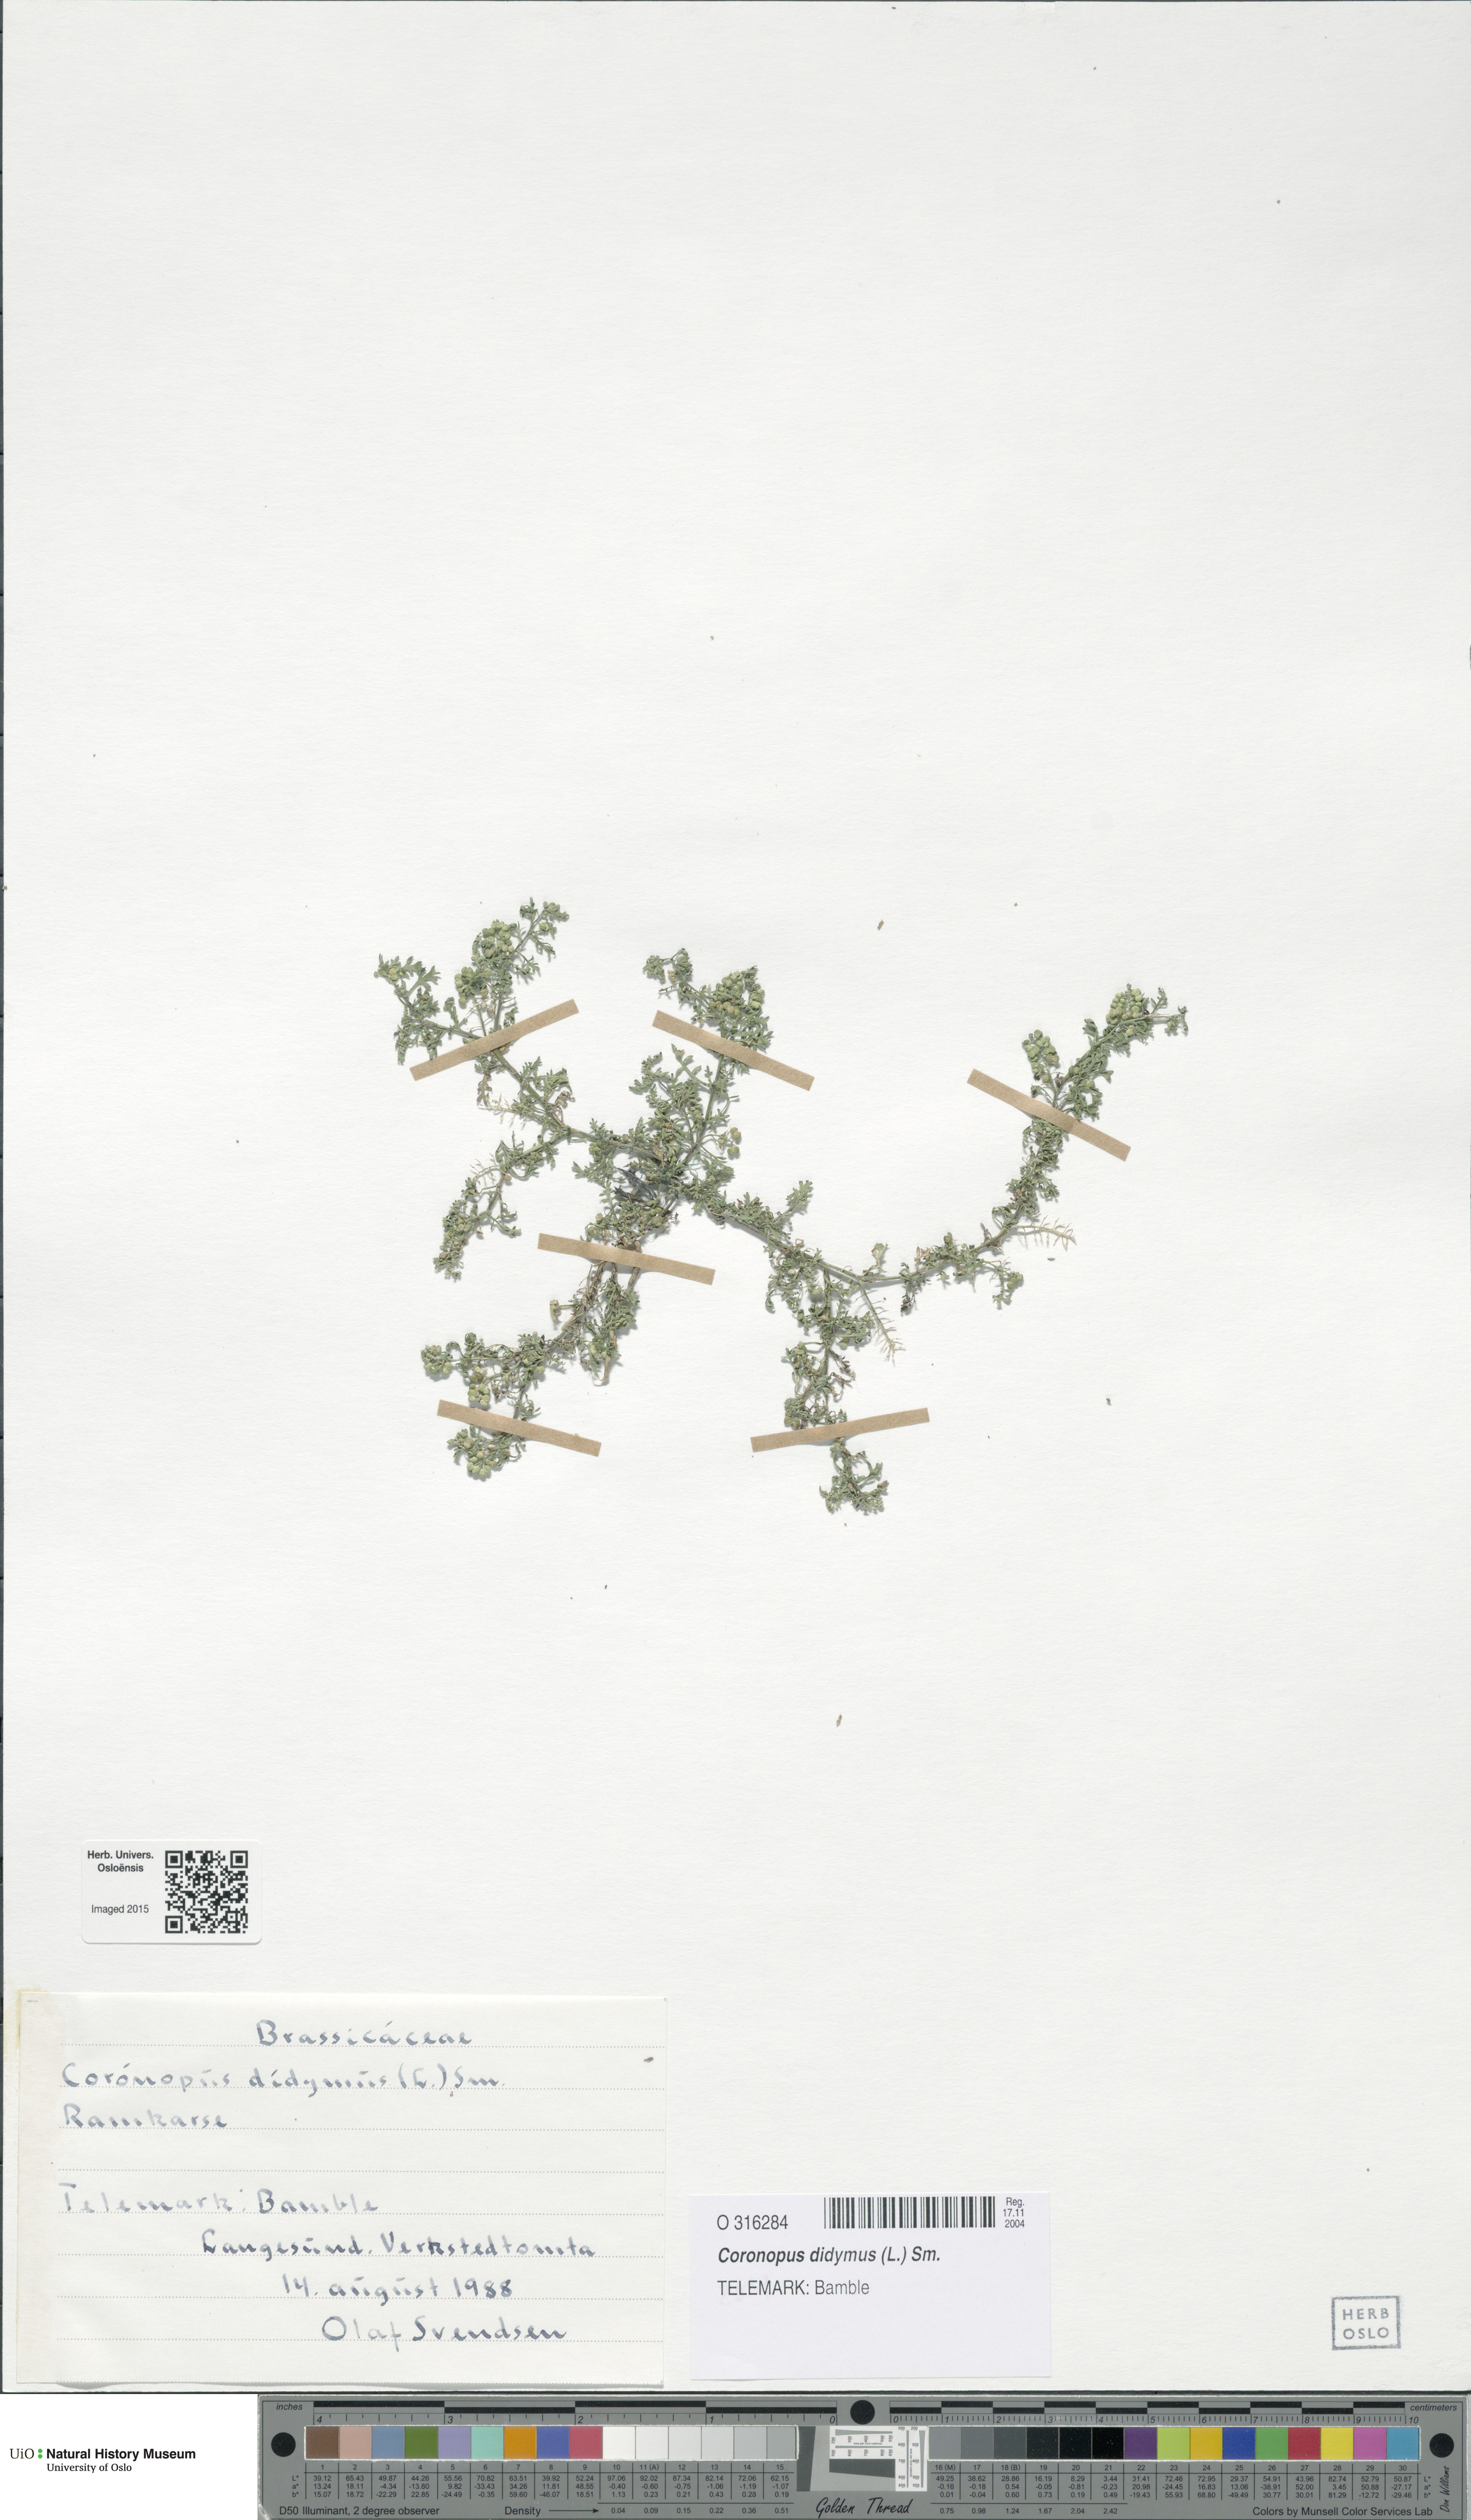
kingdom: Plantae
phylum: Tracheophyta
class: Magnoliopsida
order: Brassicales
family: Brassicaceae
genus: Lepidium
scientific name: Lepidium didymum
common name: Lesser swinecress
